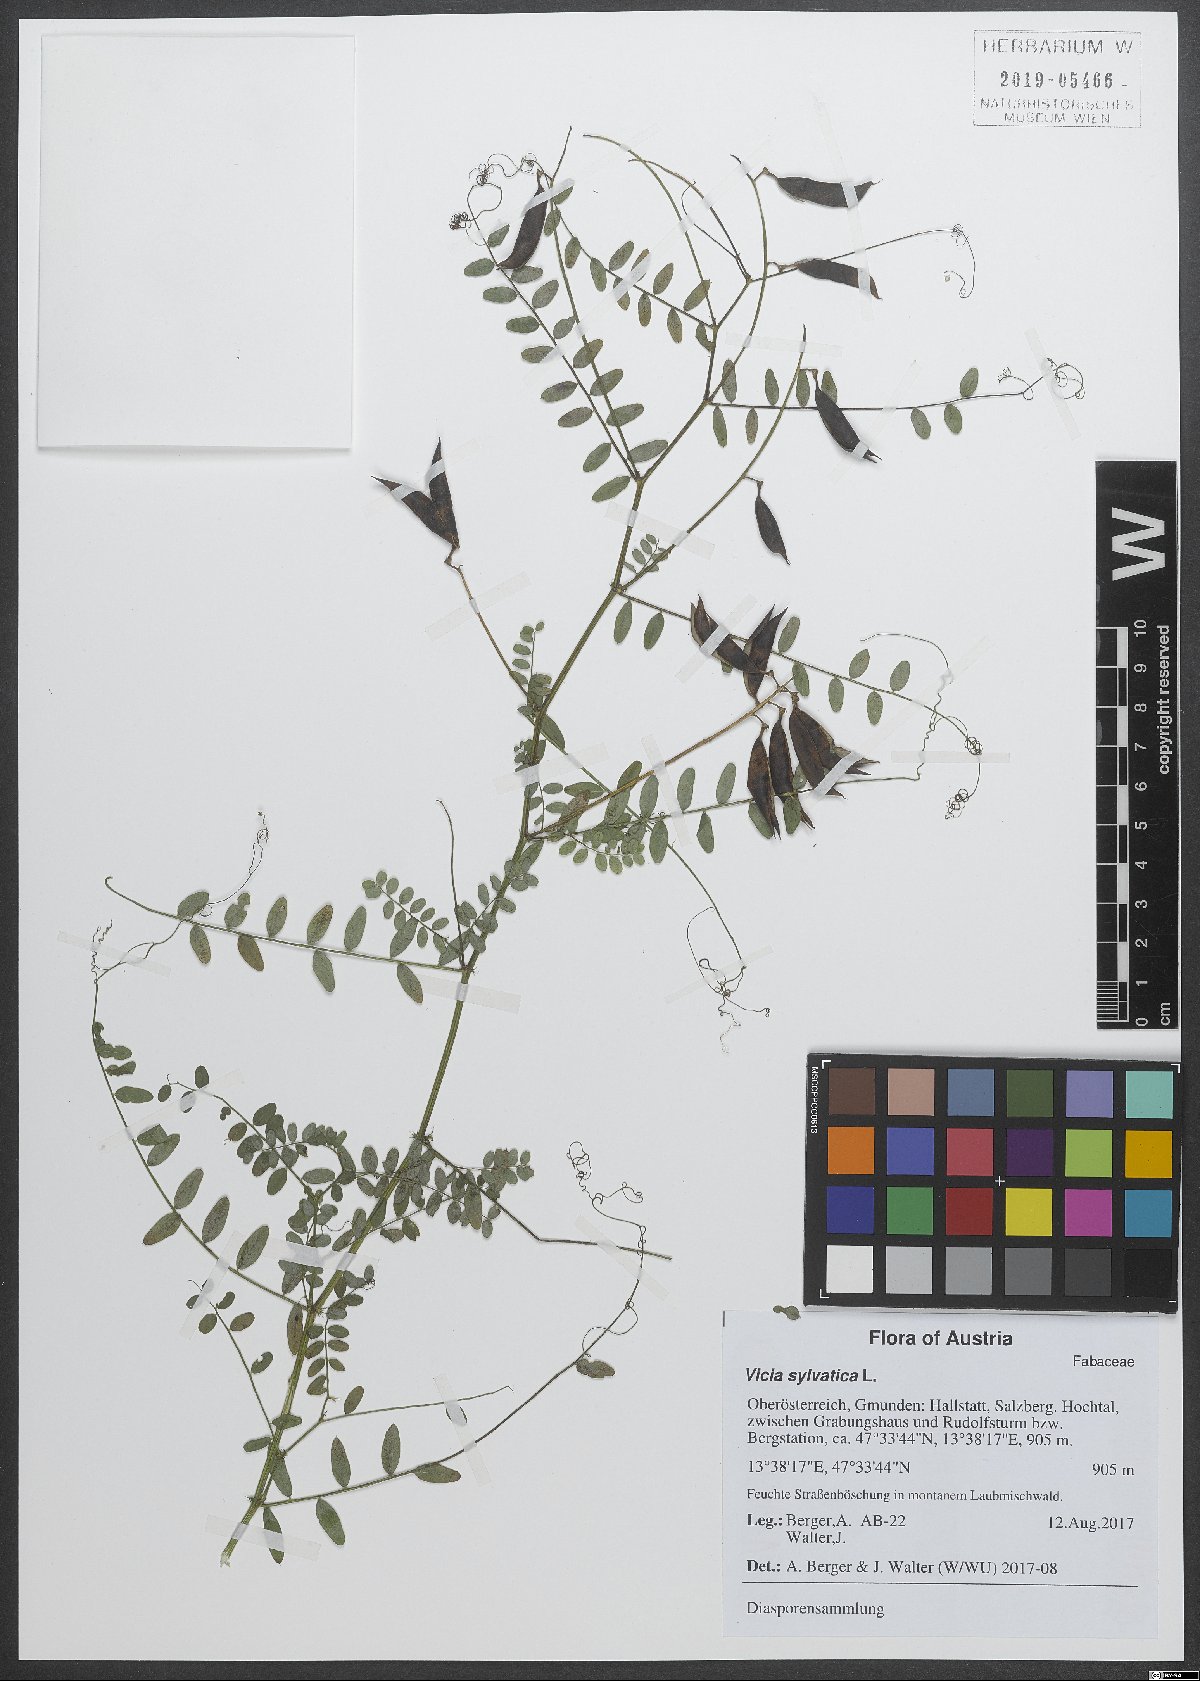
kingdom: Plantae
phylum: Tracheophyta
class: Magnoliopsida
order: Fabales
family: Fabaceae
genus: Vicia
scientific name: Vicia sylvatica
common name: Wood vetch
